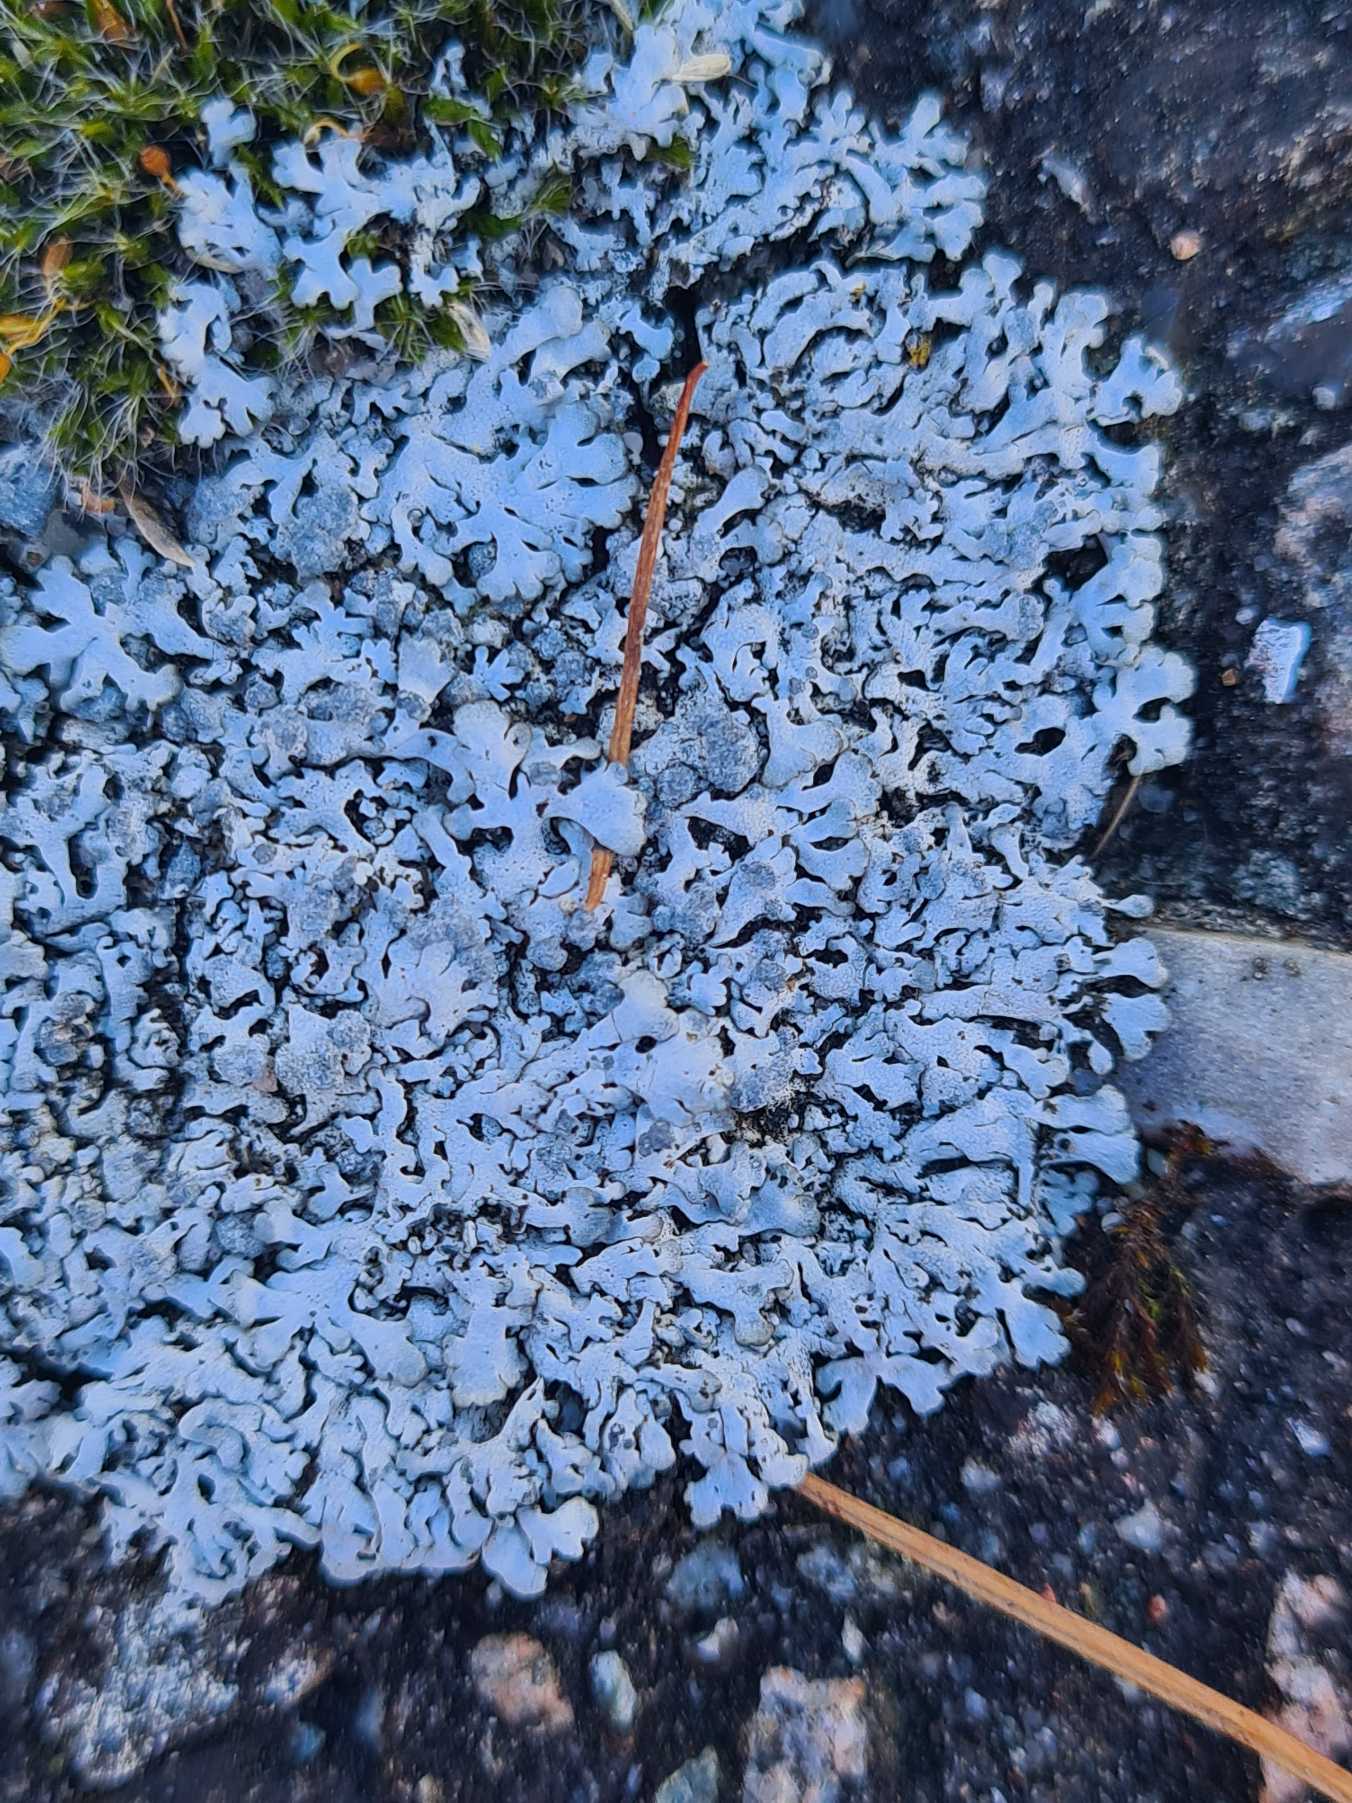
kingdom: Fungi
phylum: Ascomycota
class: Lecanoromycetes
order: Caliciales
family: Physciaceae
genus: Physcia
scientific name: Physcia caesia
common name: Blågrå rosetlav
